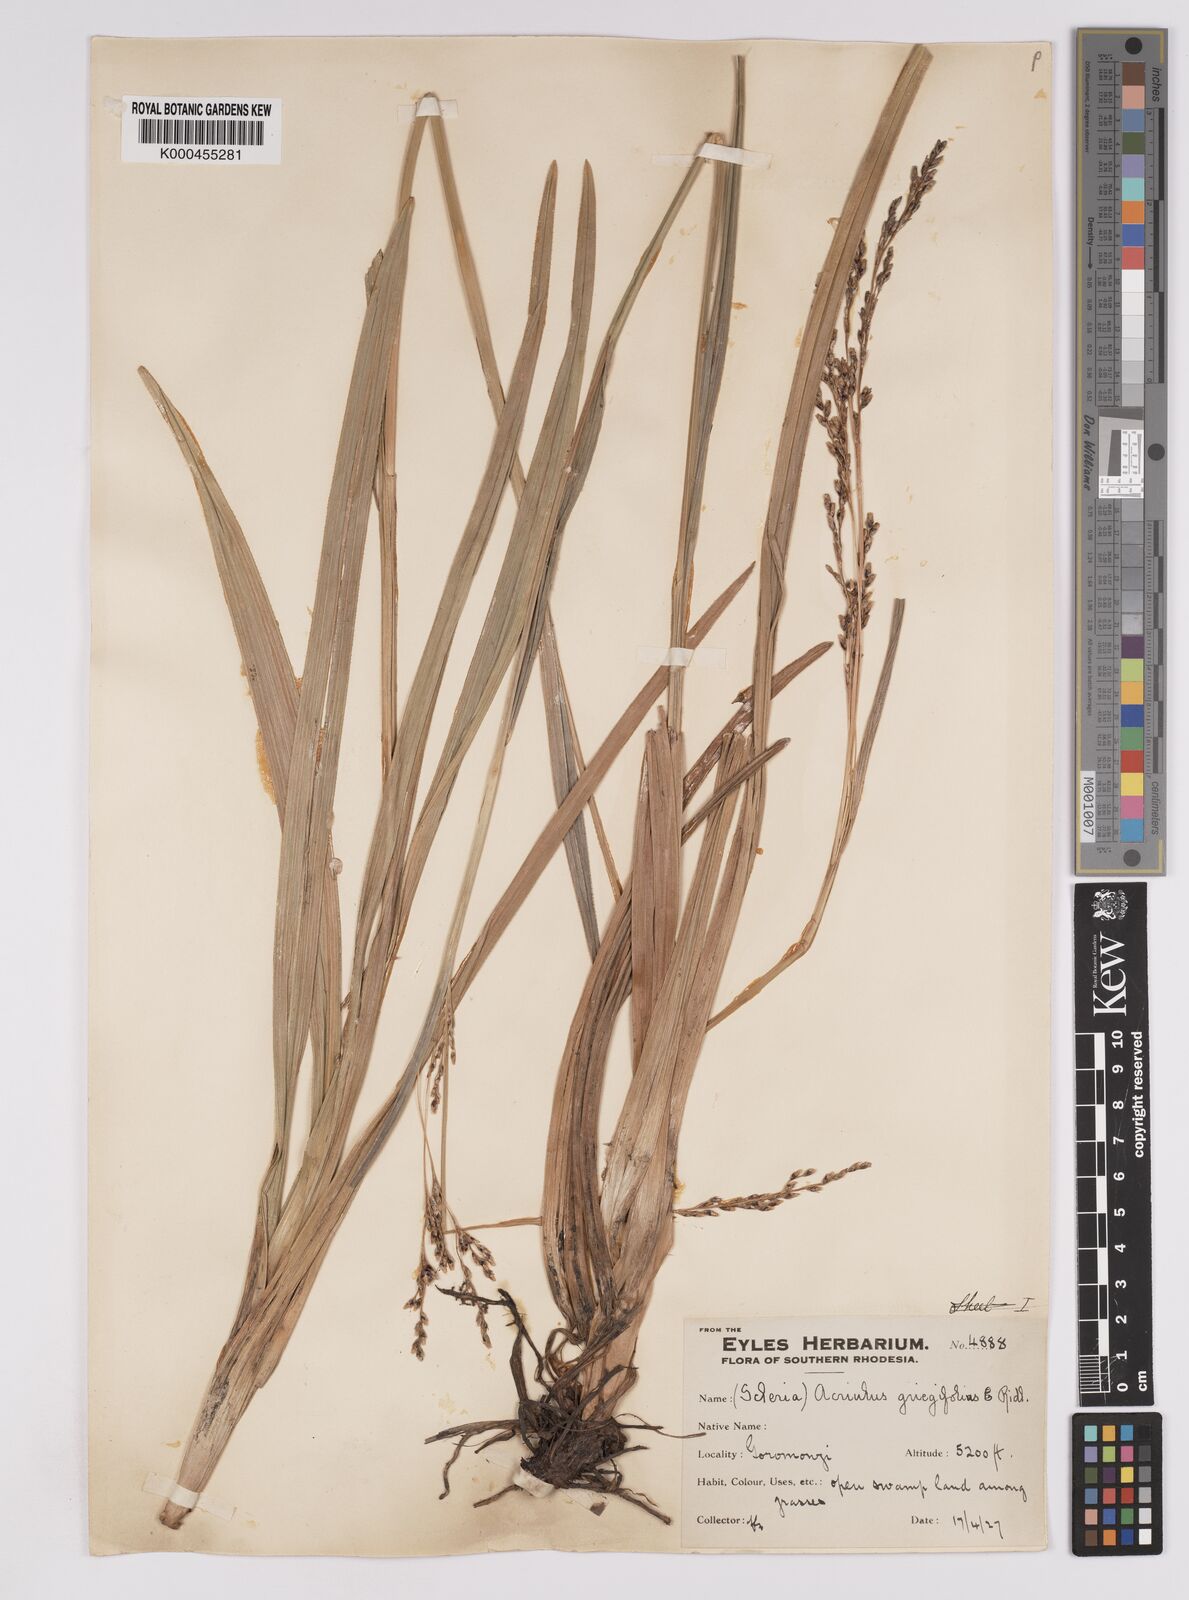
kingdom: Plantae
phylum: Tracheophyta
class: Liliopsida
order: Poales
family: Cyperaceae
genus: Scleria
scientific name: Scleria greigiifolia
